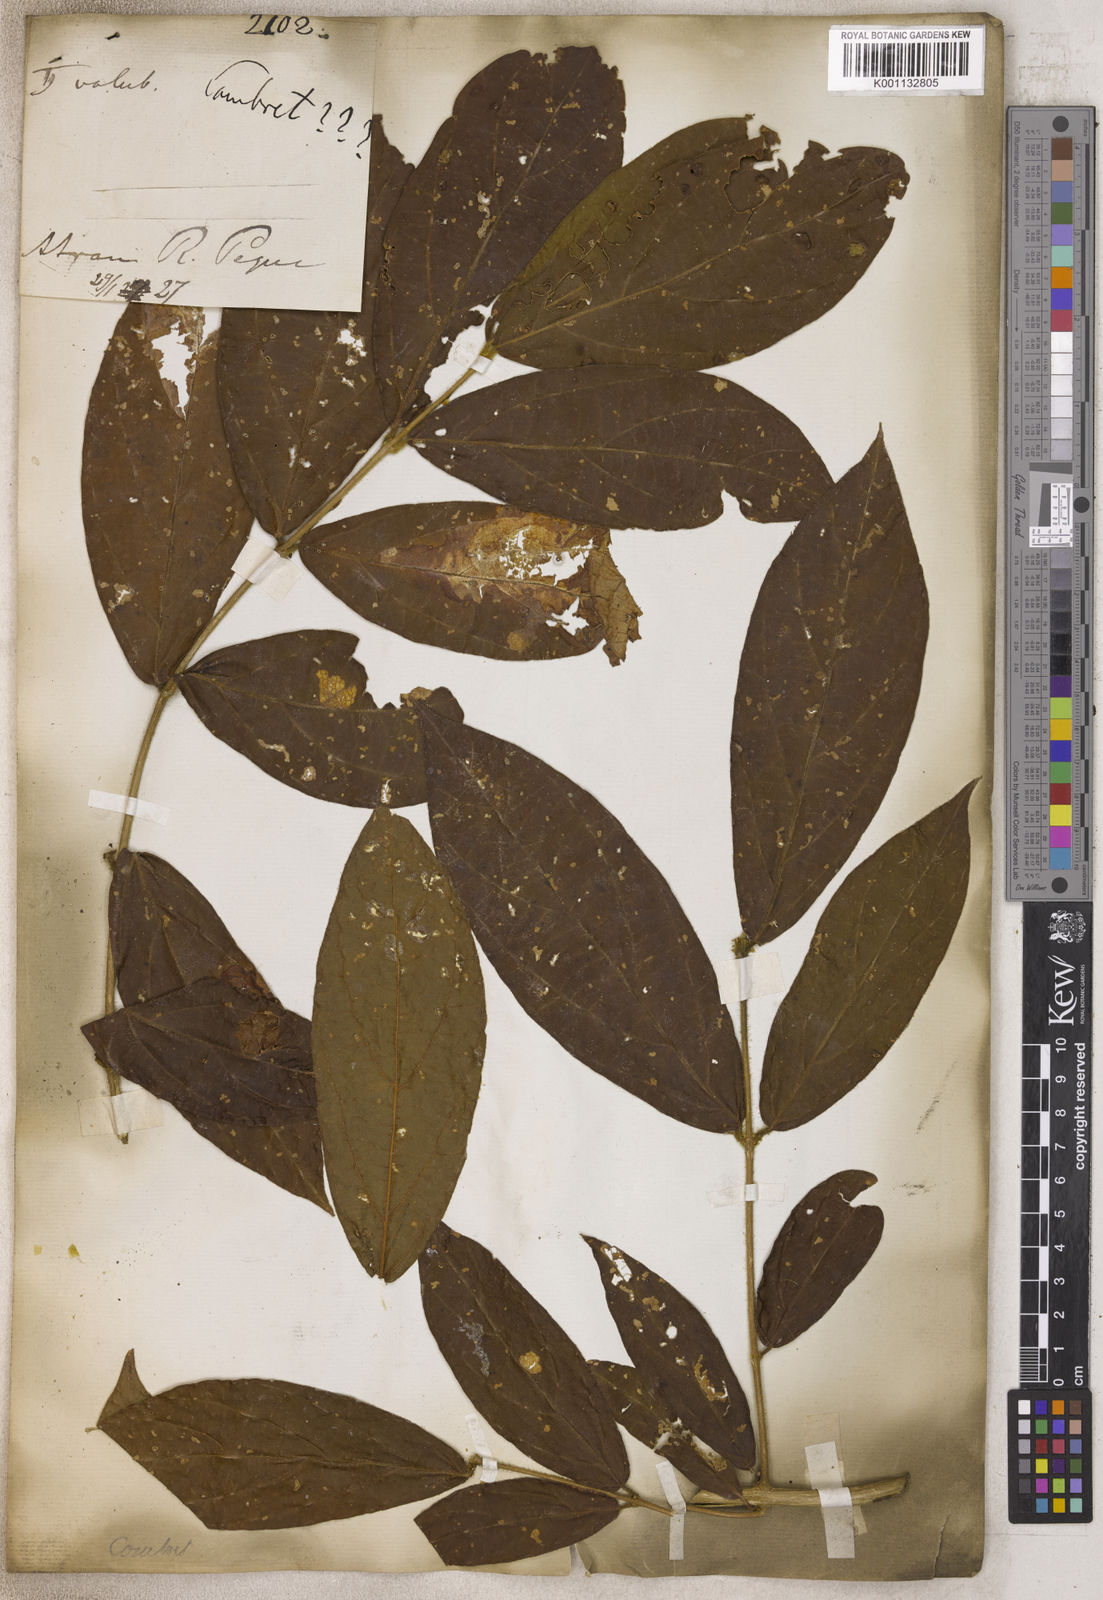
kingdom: Plantae
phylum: Tracheophyta
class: Magnoliopsida
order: Myrtales
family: Combretaceae
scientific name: Combretaceae
